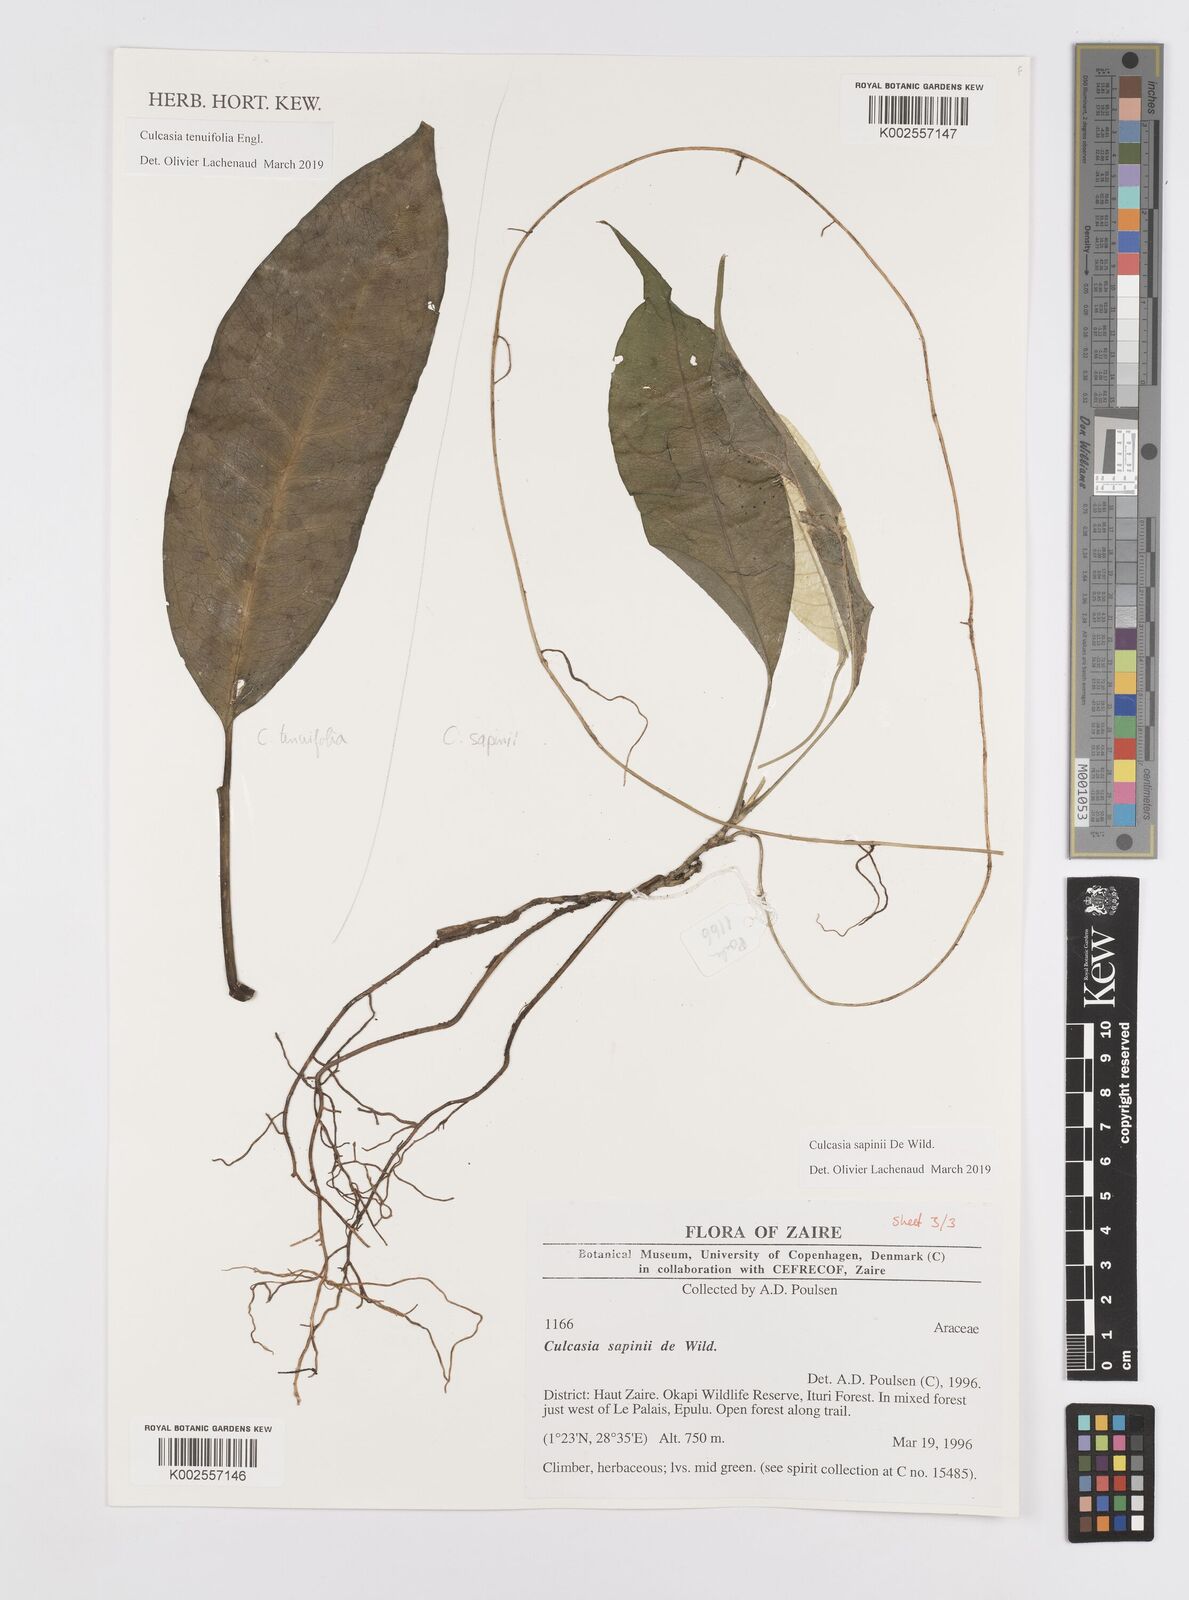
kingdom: Plantae
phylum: Tracheophyta
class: Liliopsida
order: Alismatales
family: Araceae
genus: Culcasia
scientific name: Culcasia seretii
